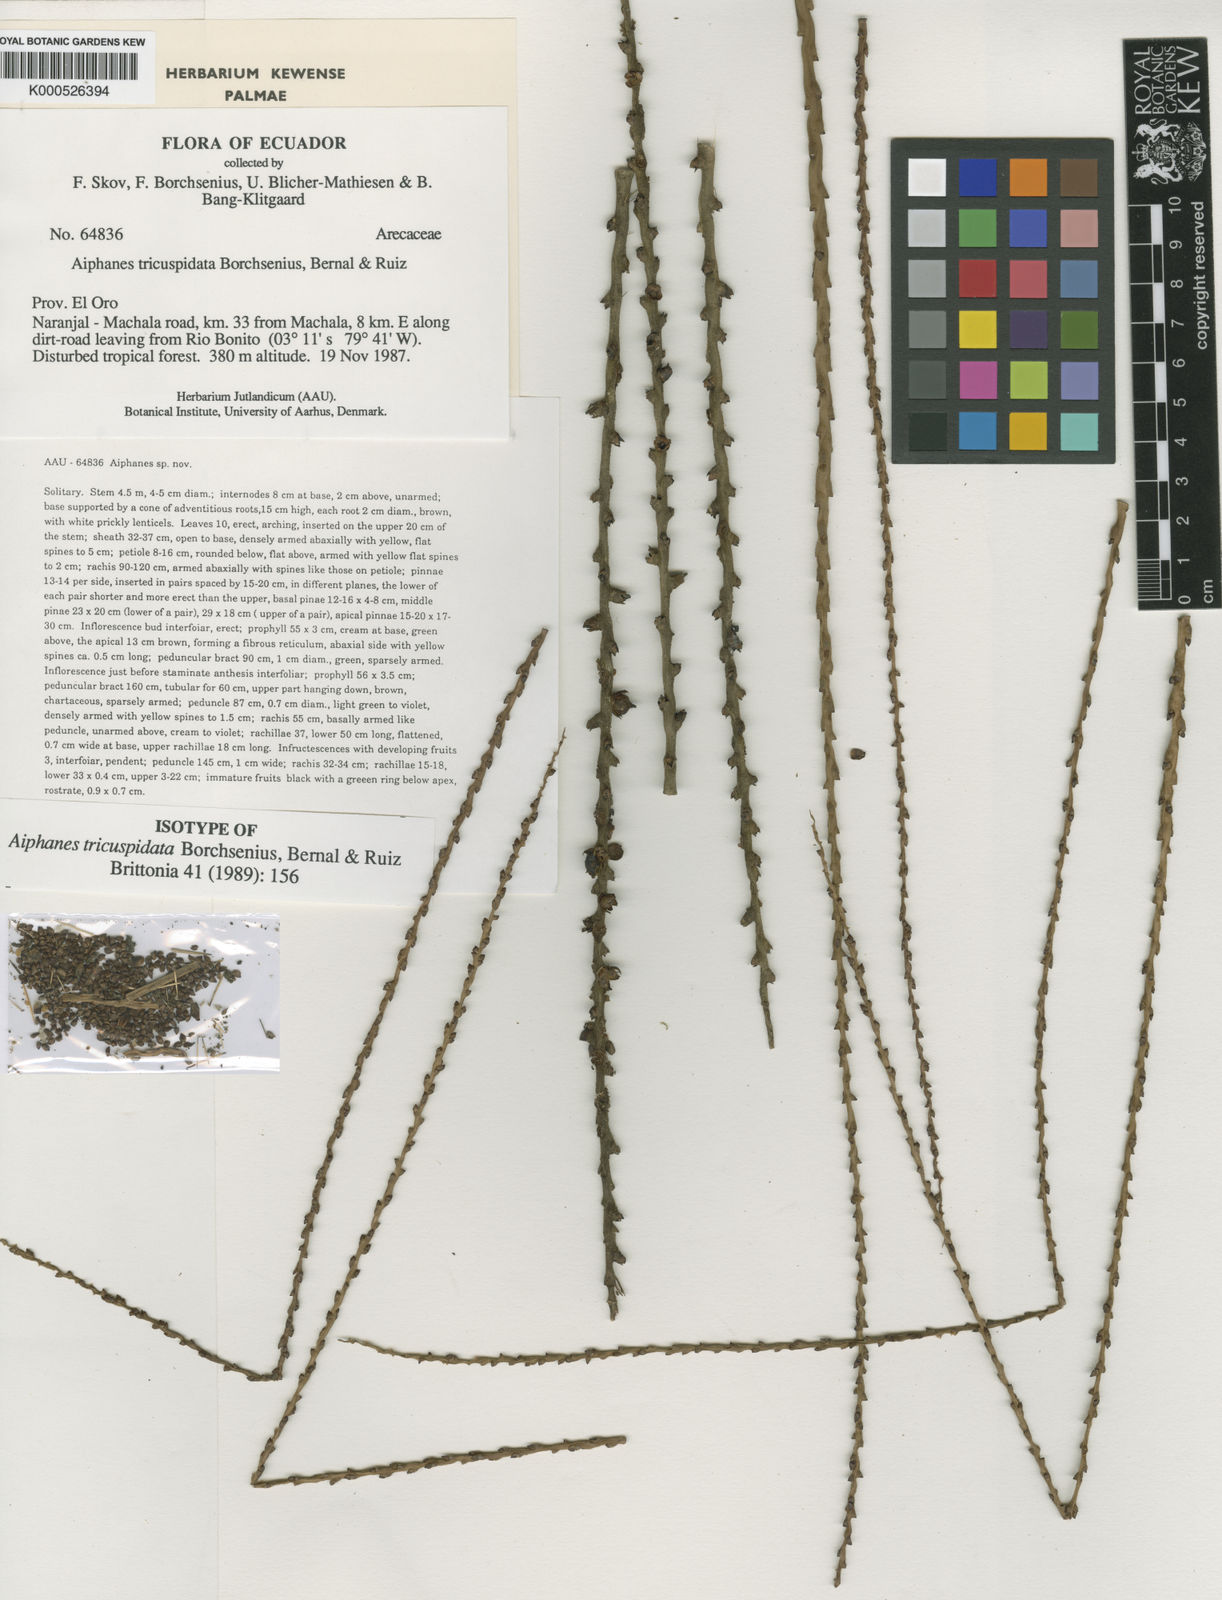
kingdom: Plantae
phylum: Tracheophyta
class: Liliopsida
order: Arecales
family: Arecaceae
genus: Aiphanes
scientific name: Aiphanes
